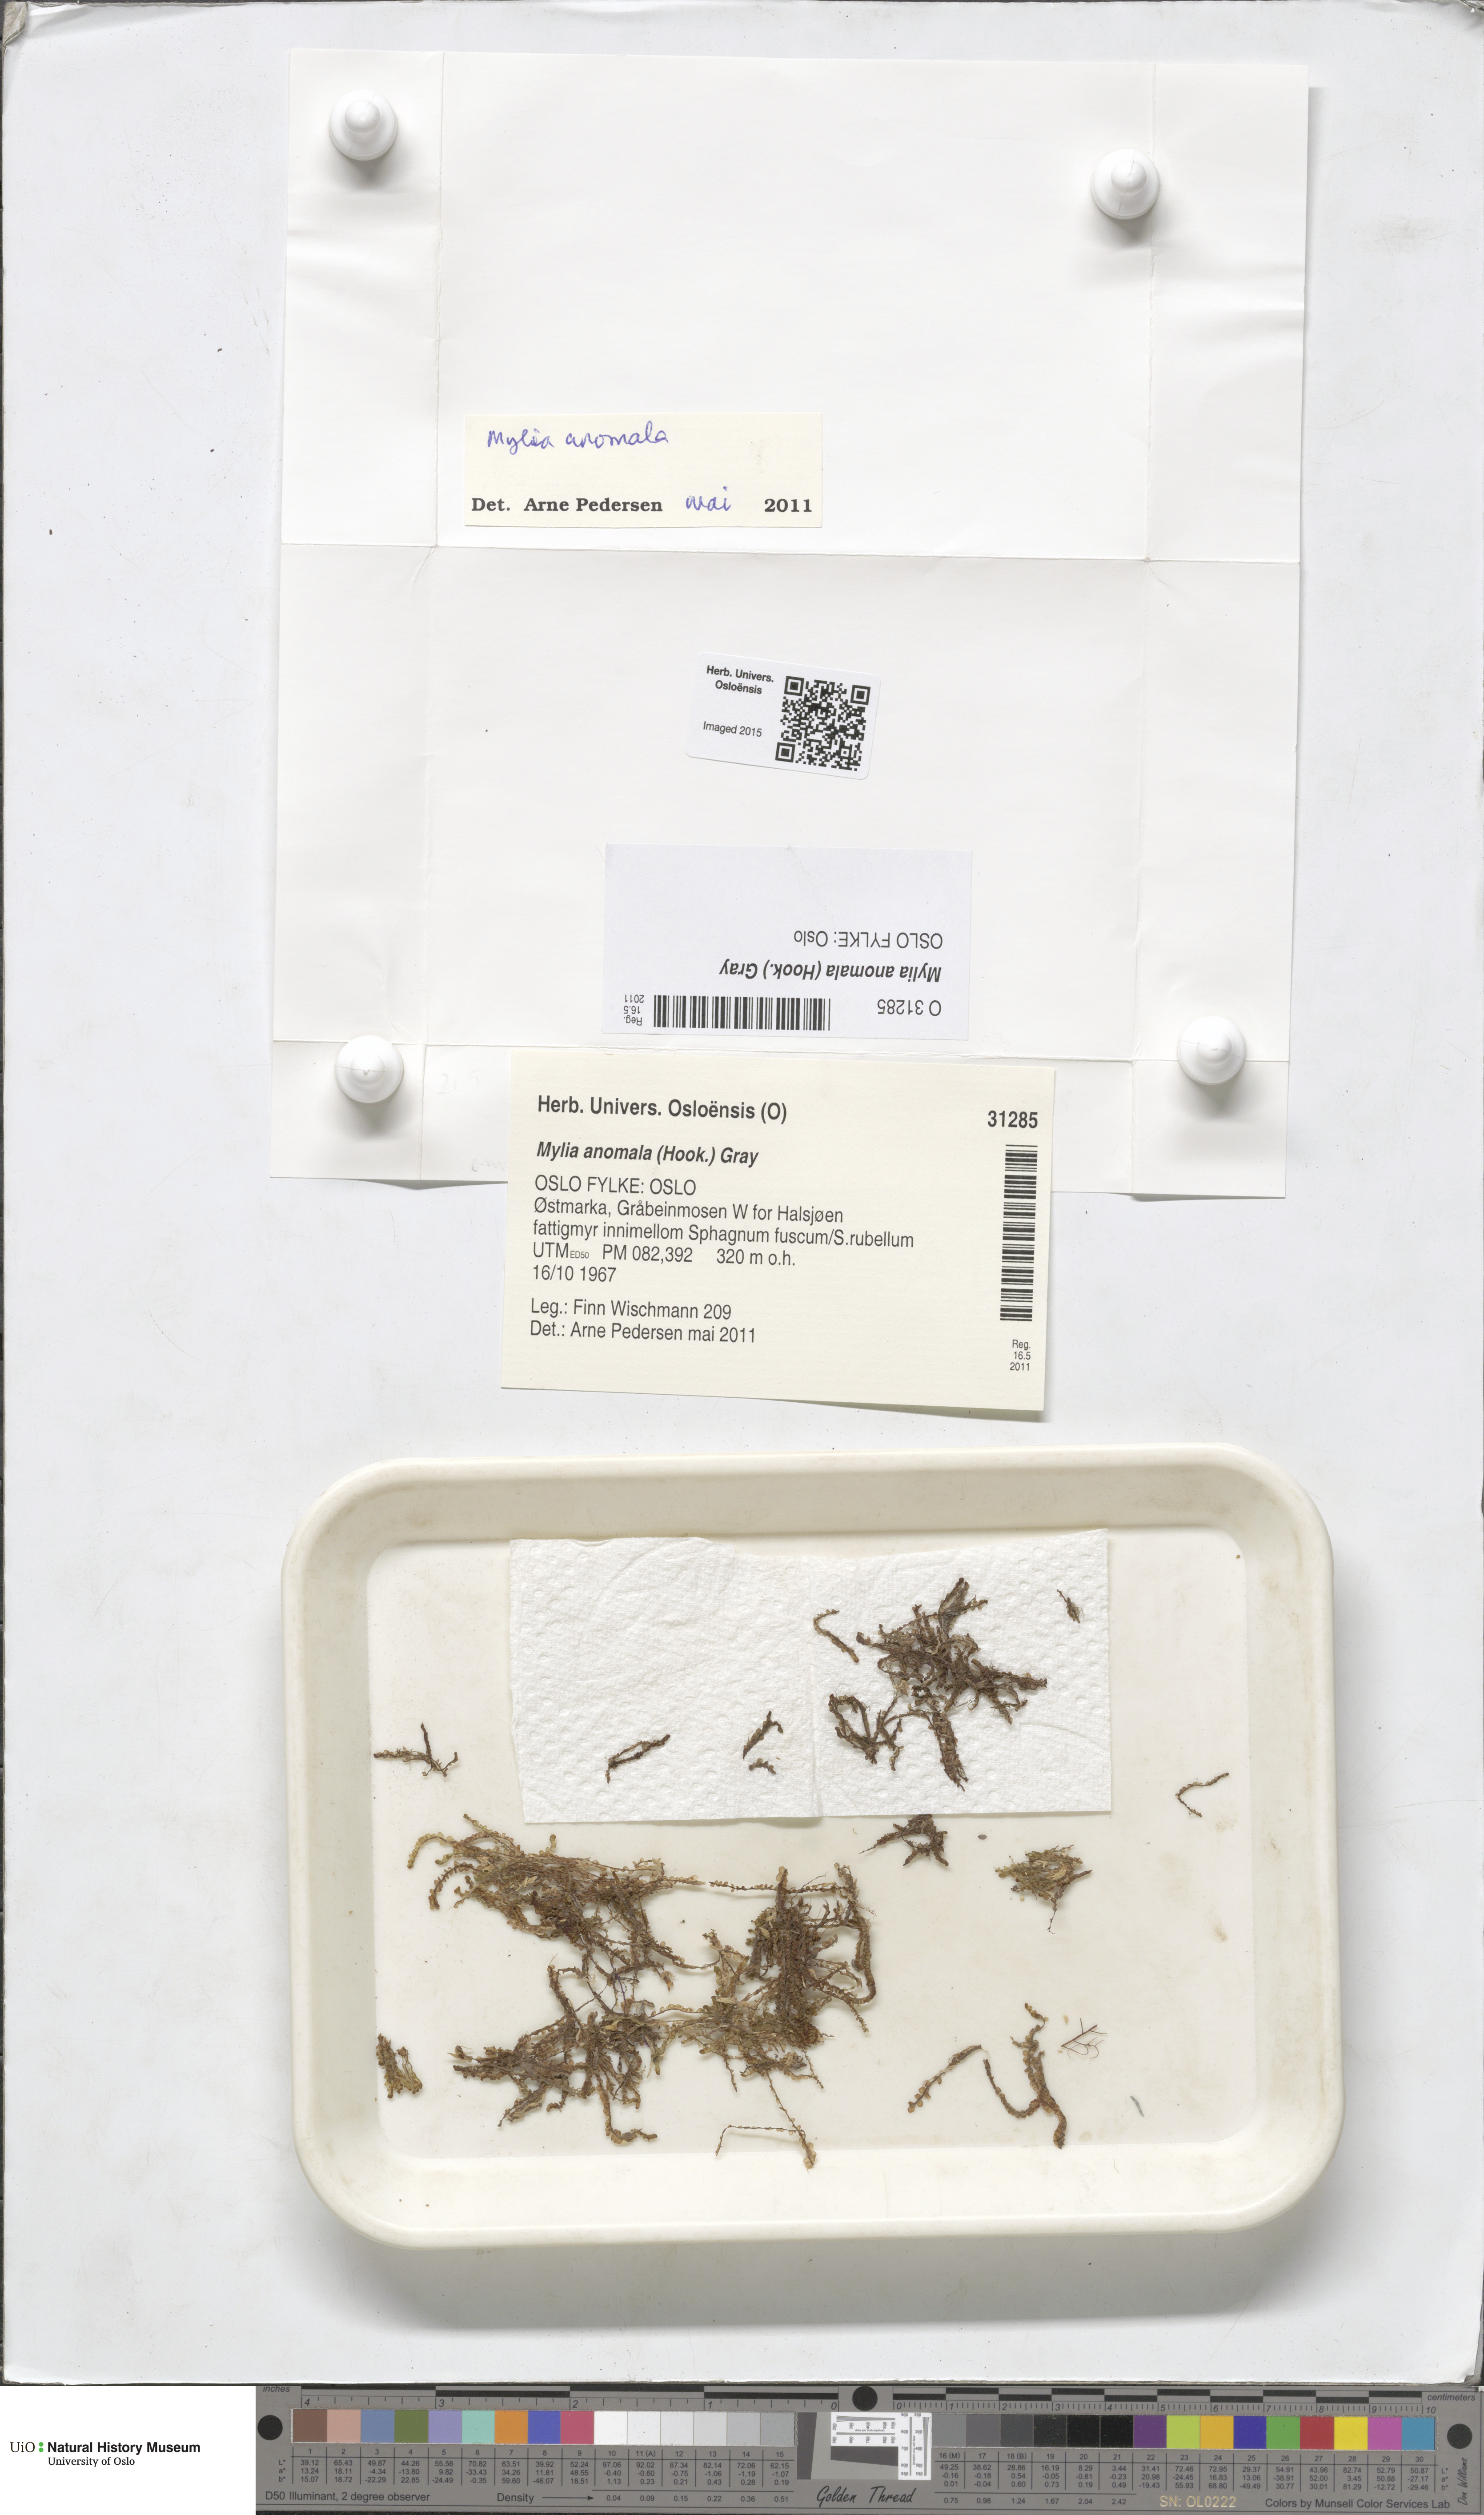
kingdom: Plantae
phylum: Marchantiophyta
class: Jungermanniopsida
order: Jungermanniales
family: Myliaceae
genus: Mylia
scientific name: Mylia anomala
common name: Anomalous flapwort
